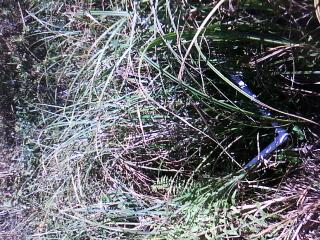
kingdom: Plantae
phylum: Tracheophyta
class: Magnoliopsida
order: Myrtales
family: Onagraceae
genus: Epilobium
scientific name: Epilobium leptophyllum
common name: Bog willowherb
